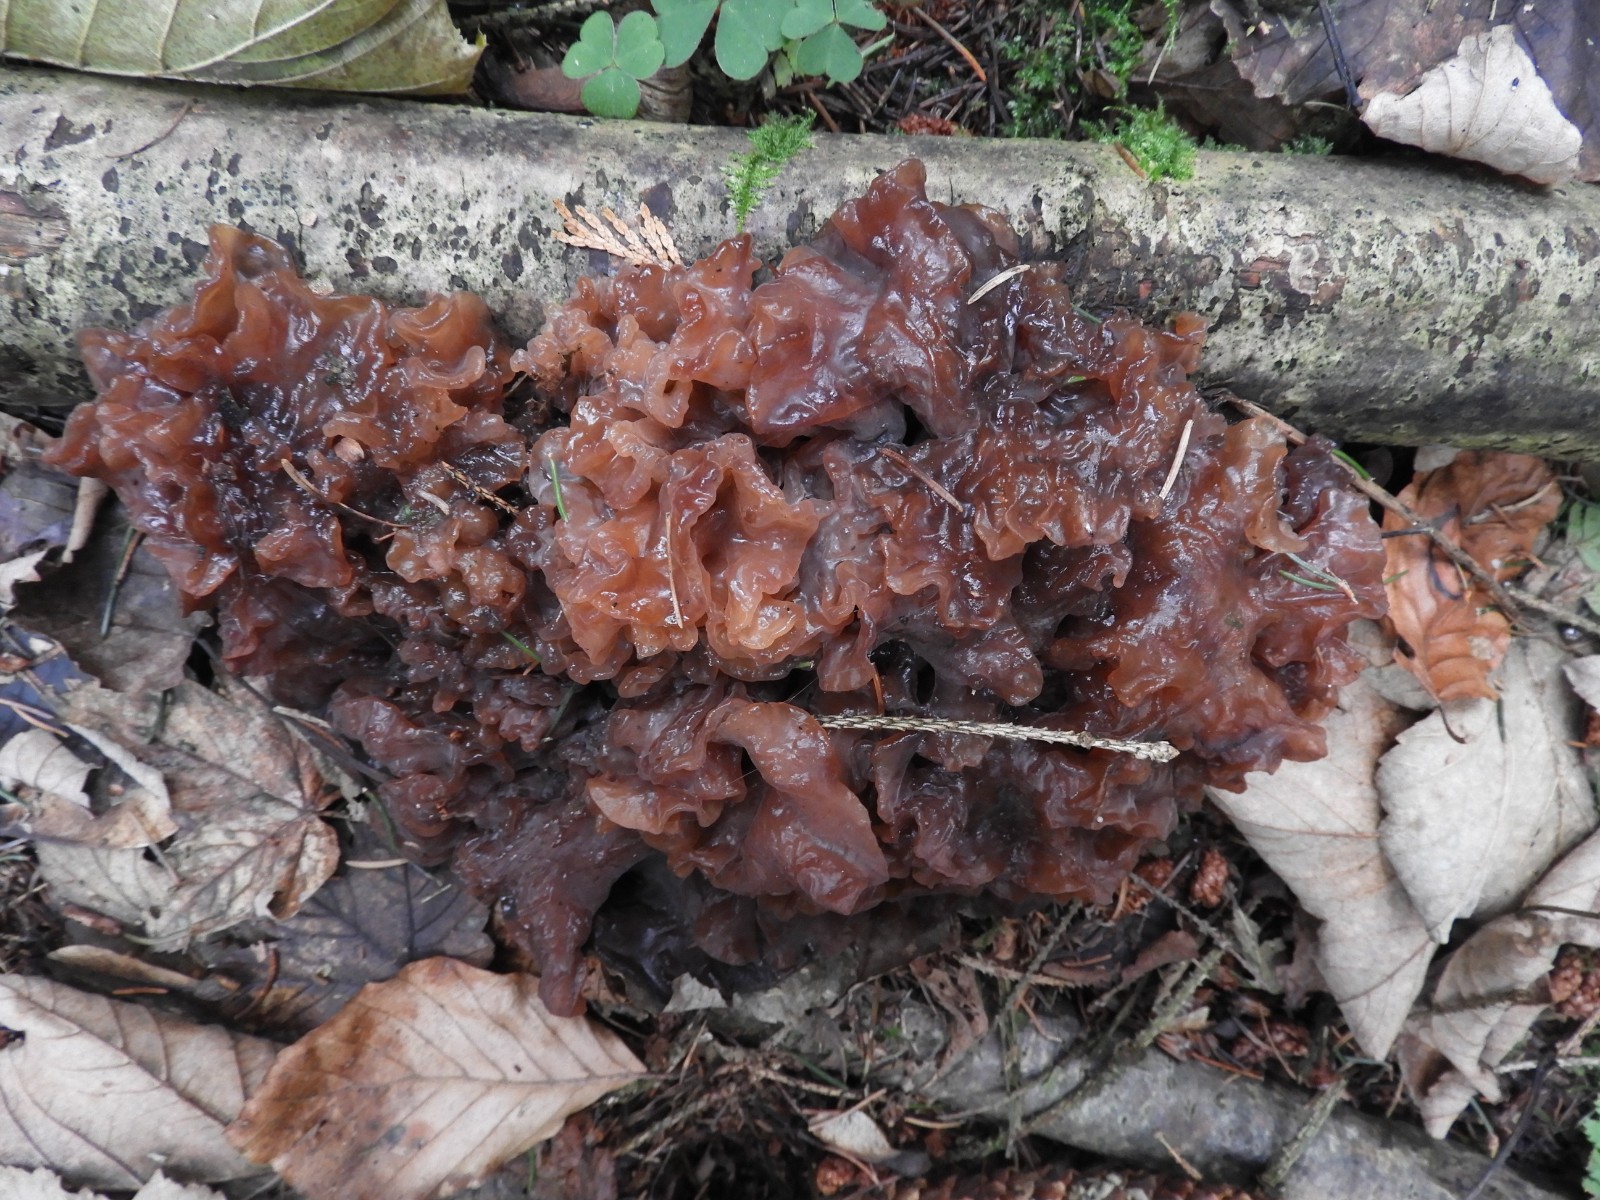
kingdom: Fungi
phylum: Basidiomycota
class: Tremellomycetes
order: Tremellales
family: Tremellaceae
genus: Phaeotremella
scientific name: Phaeotremella frondosa
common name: kæmpe-bævresvamp
